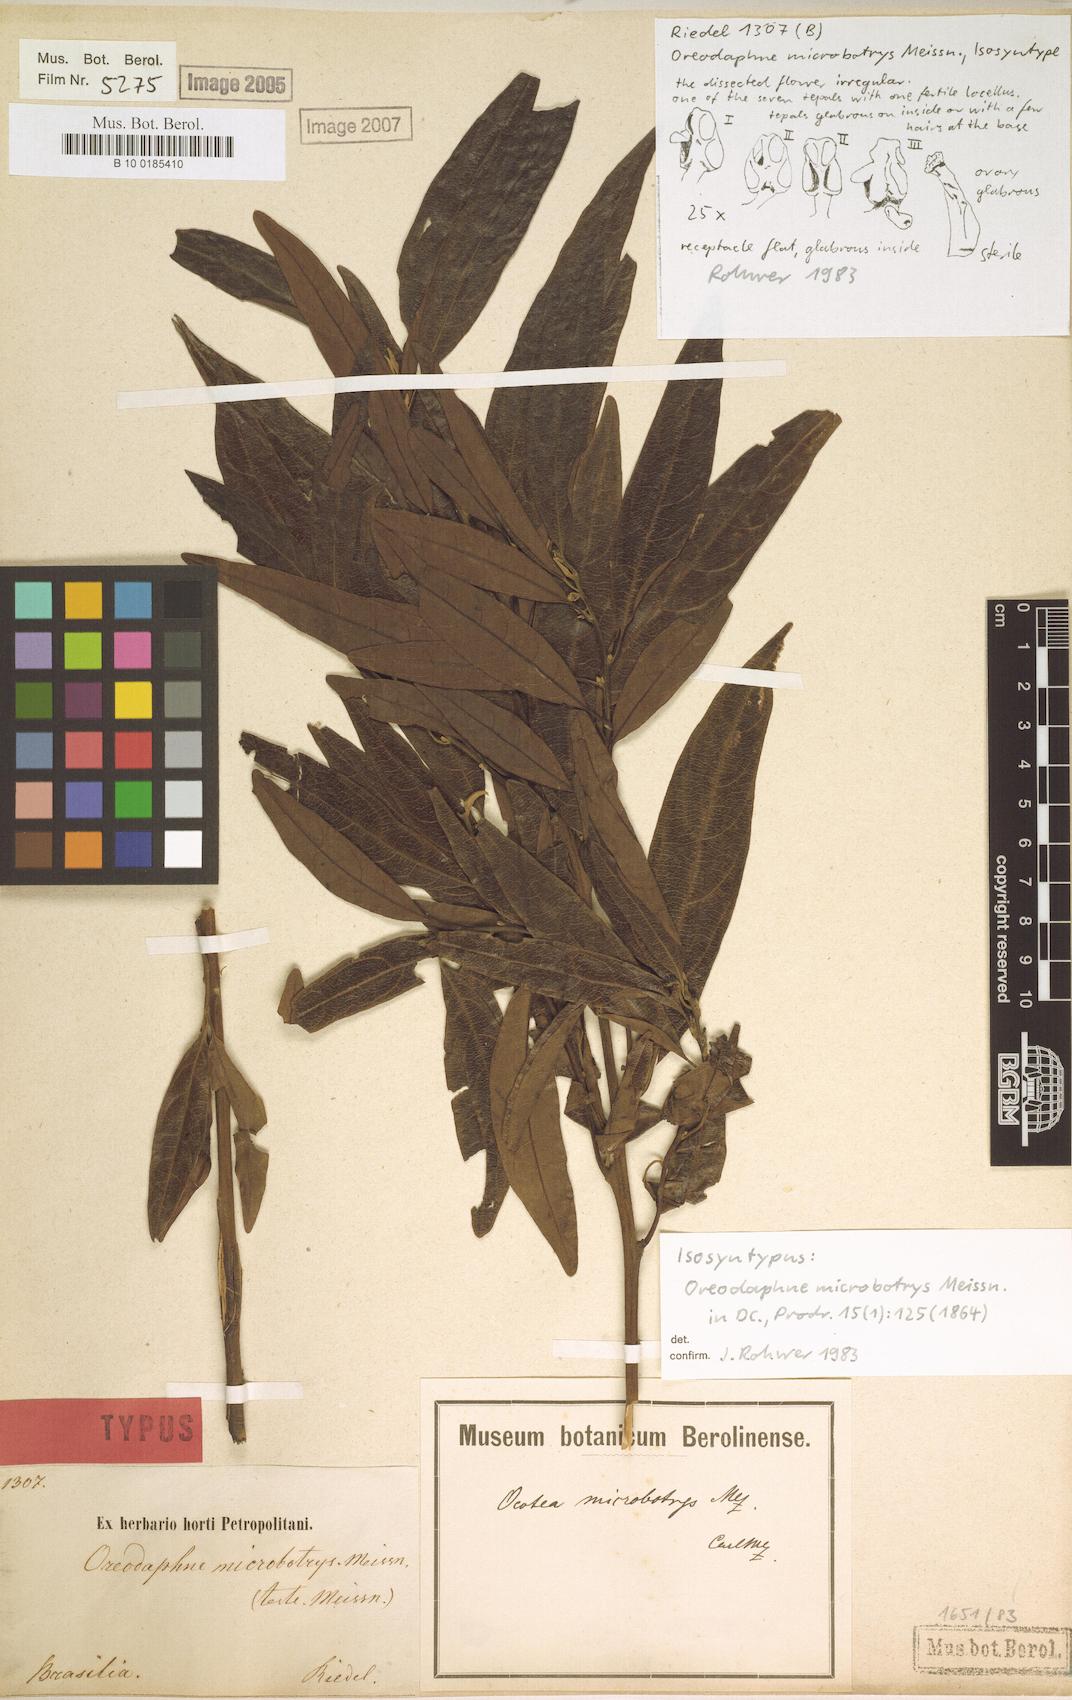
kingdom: Plantae
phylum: Tracheophyta
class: Magnoliopsida
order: Laurales
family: Lauraceae
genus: Ocotea
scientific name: Ocotea microbotrys
